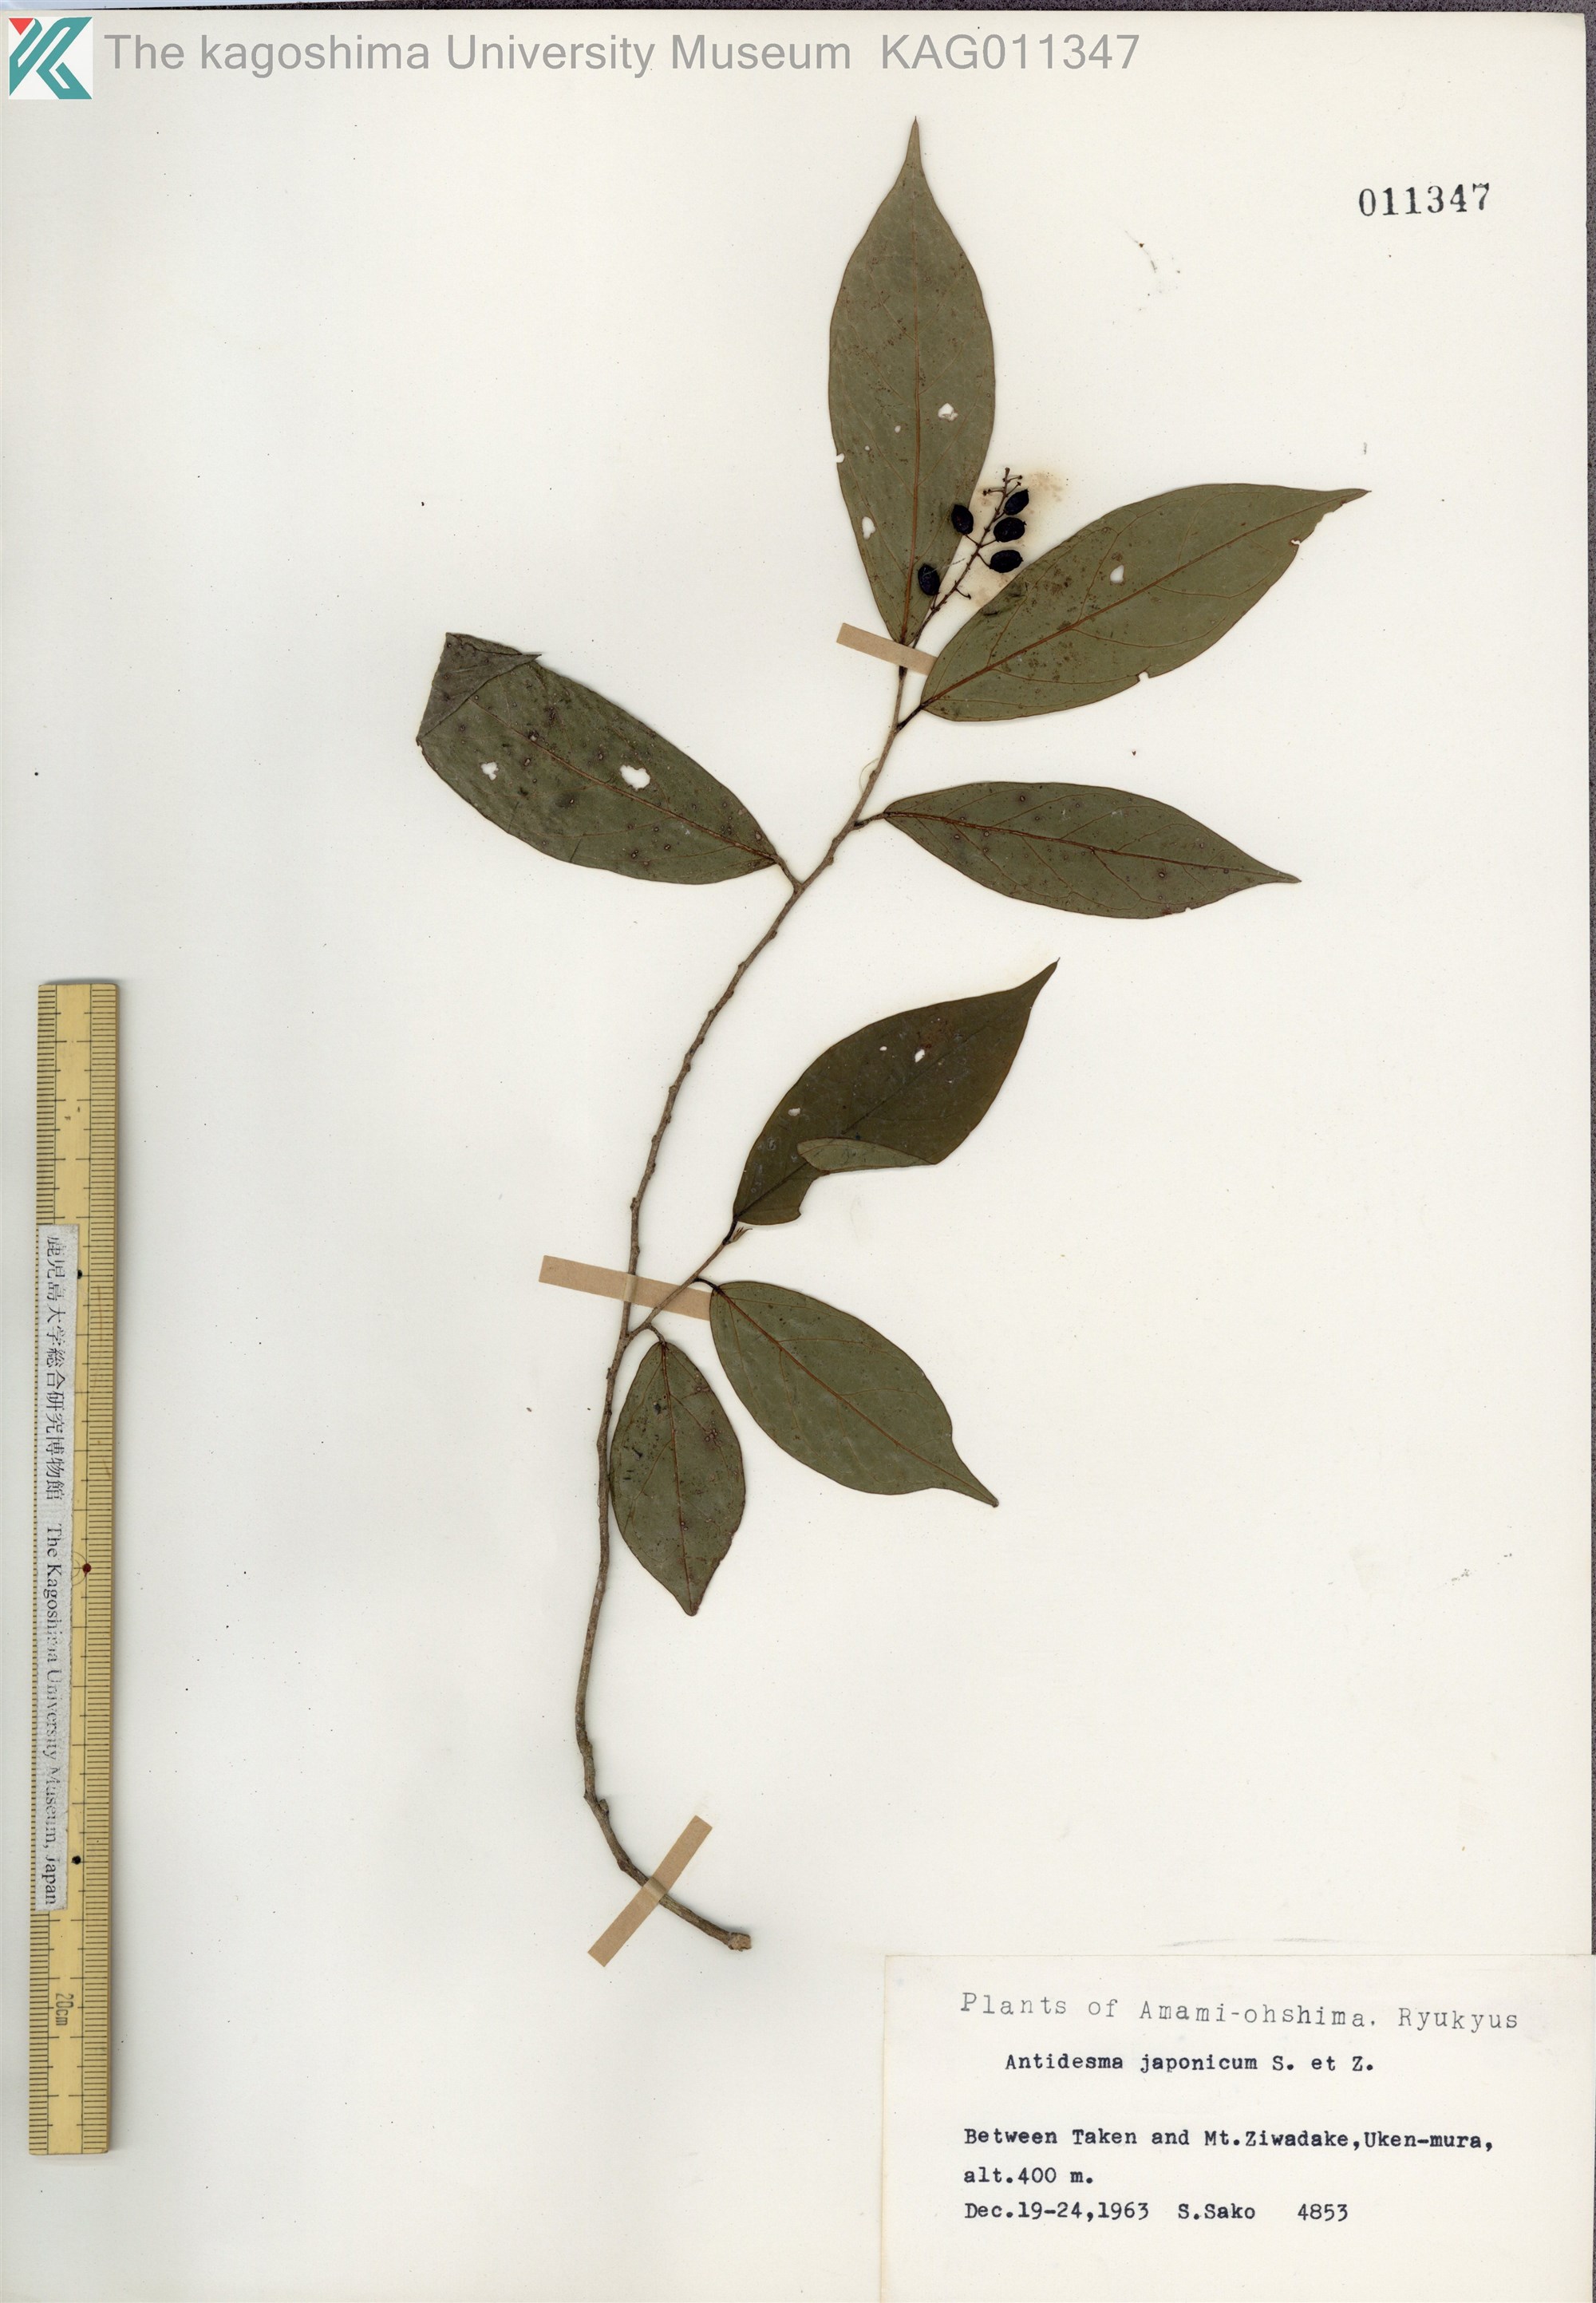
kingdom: Plantae
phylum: Tracheophyta
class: Magnoliopsida
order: Malpighiales
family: Phyllanthaceae
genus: Antidesma
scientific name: Antidesma japonicum
